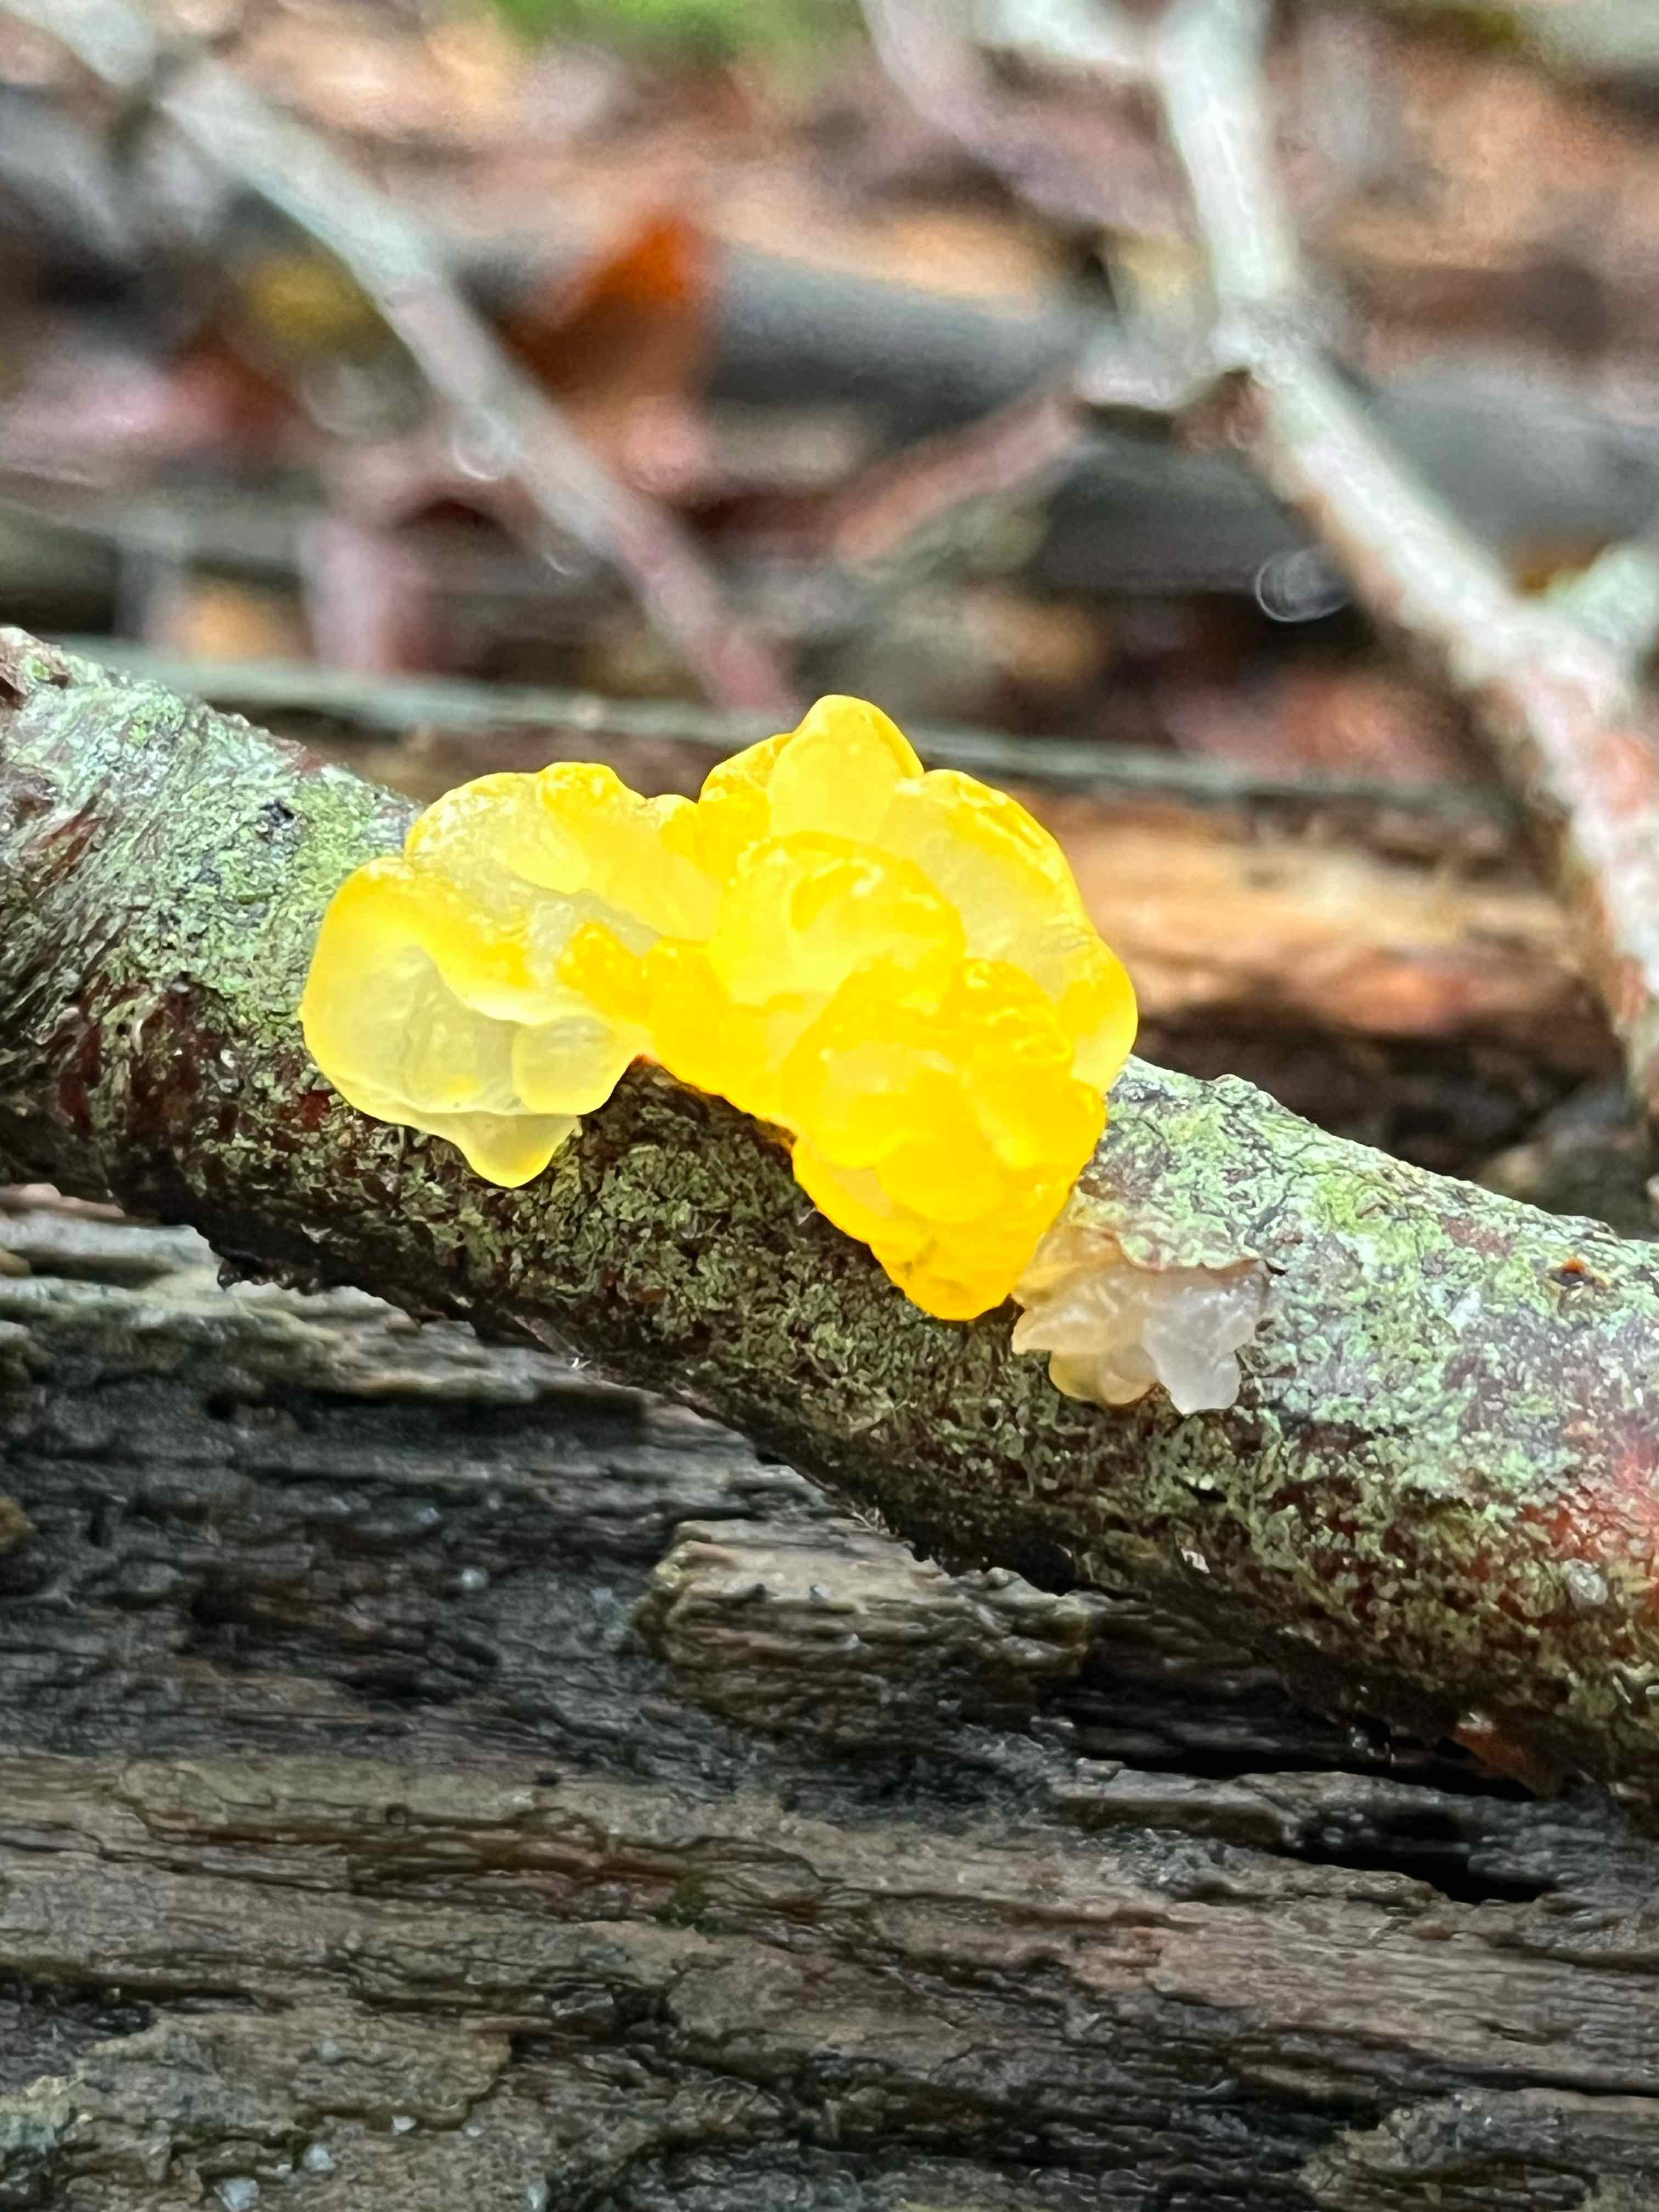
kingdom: Fungi
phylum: Basidiomycota
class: Tremellomycetes
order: Tremellales
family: Tremellaceae
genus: Tremella
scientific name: Tremella mesenterica
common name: gul bævresvamp
